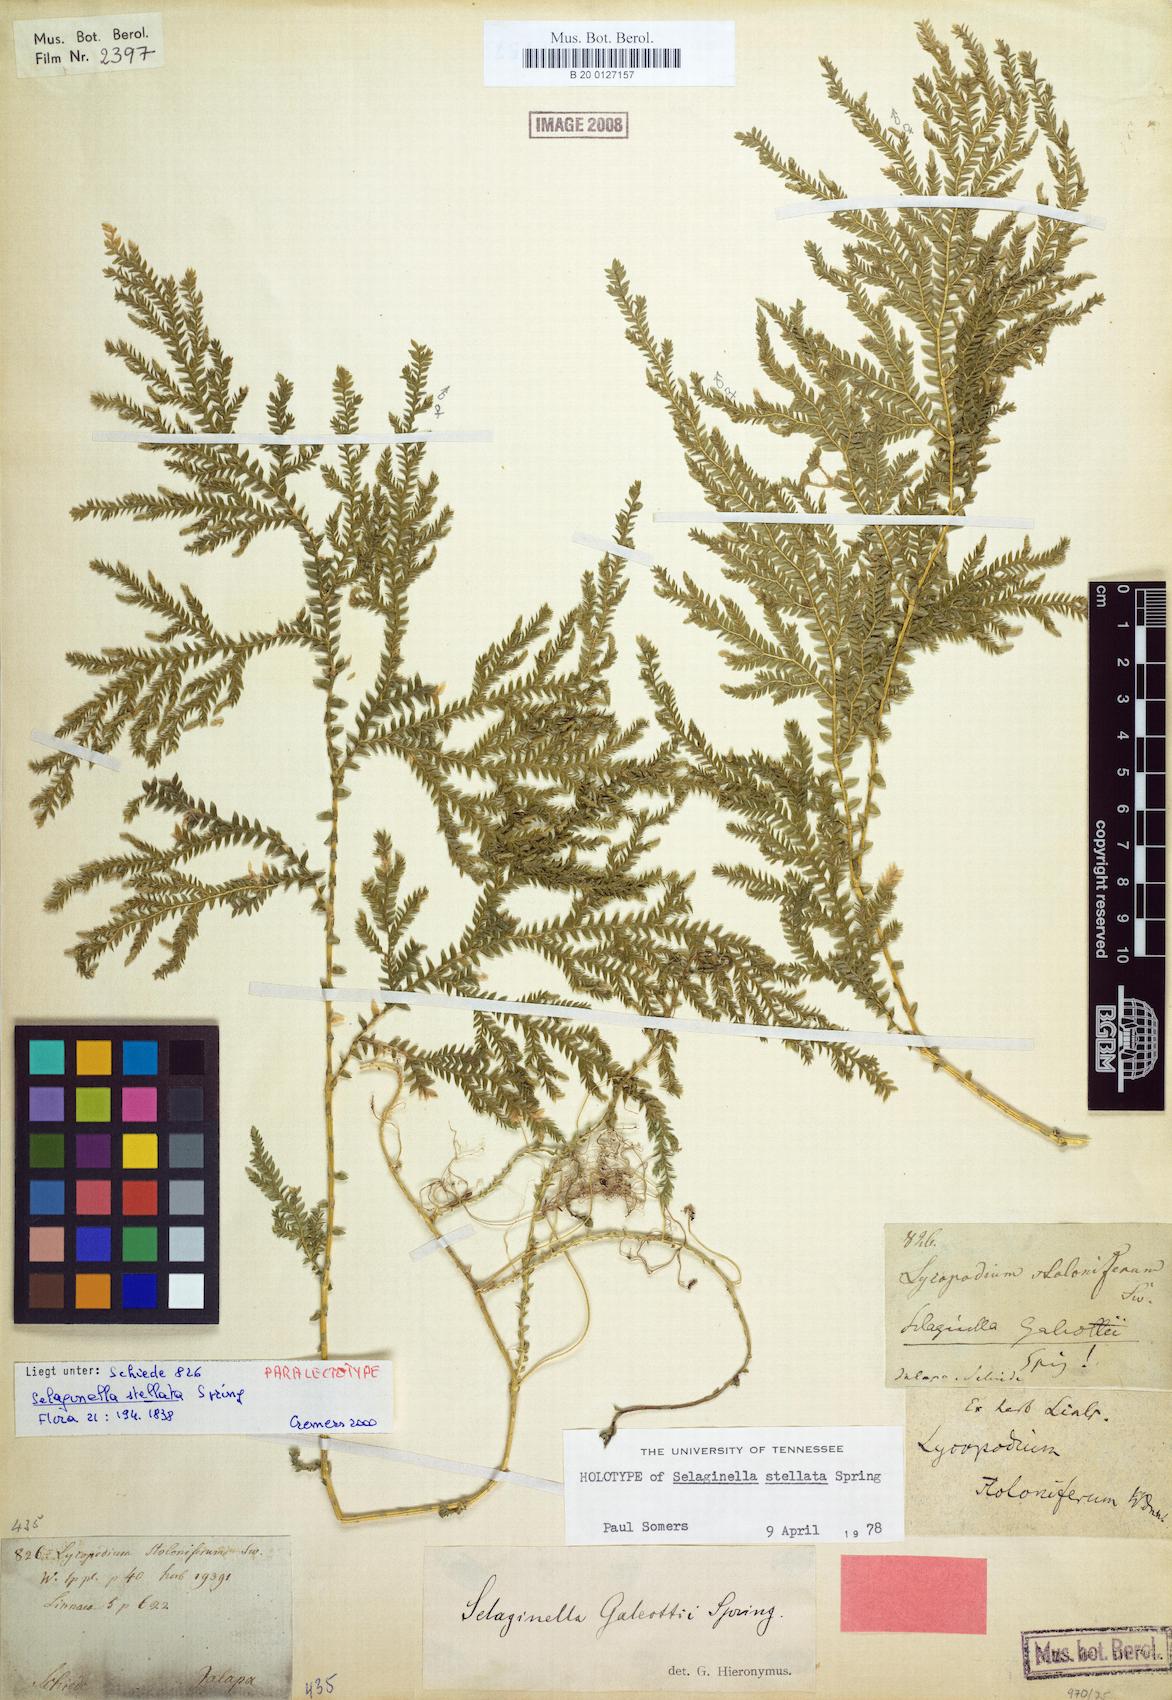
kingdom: Plantae
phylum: Tracheophyta
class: Lycopodiopsida
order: Selaginellales
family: Selaginellaceae
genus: Selaginella
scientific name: Selaginella stellata
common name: Starry spikemoss
